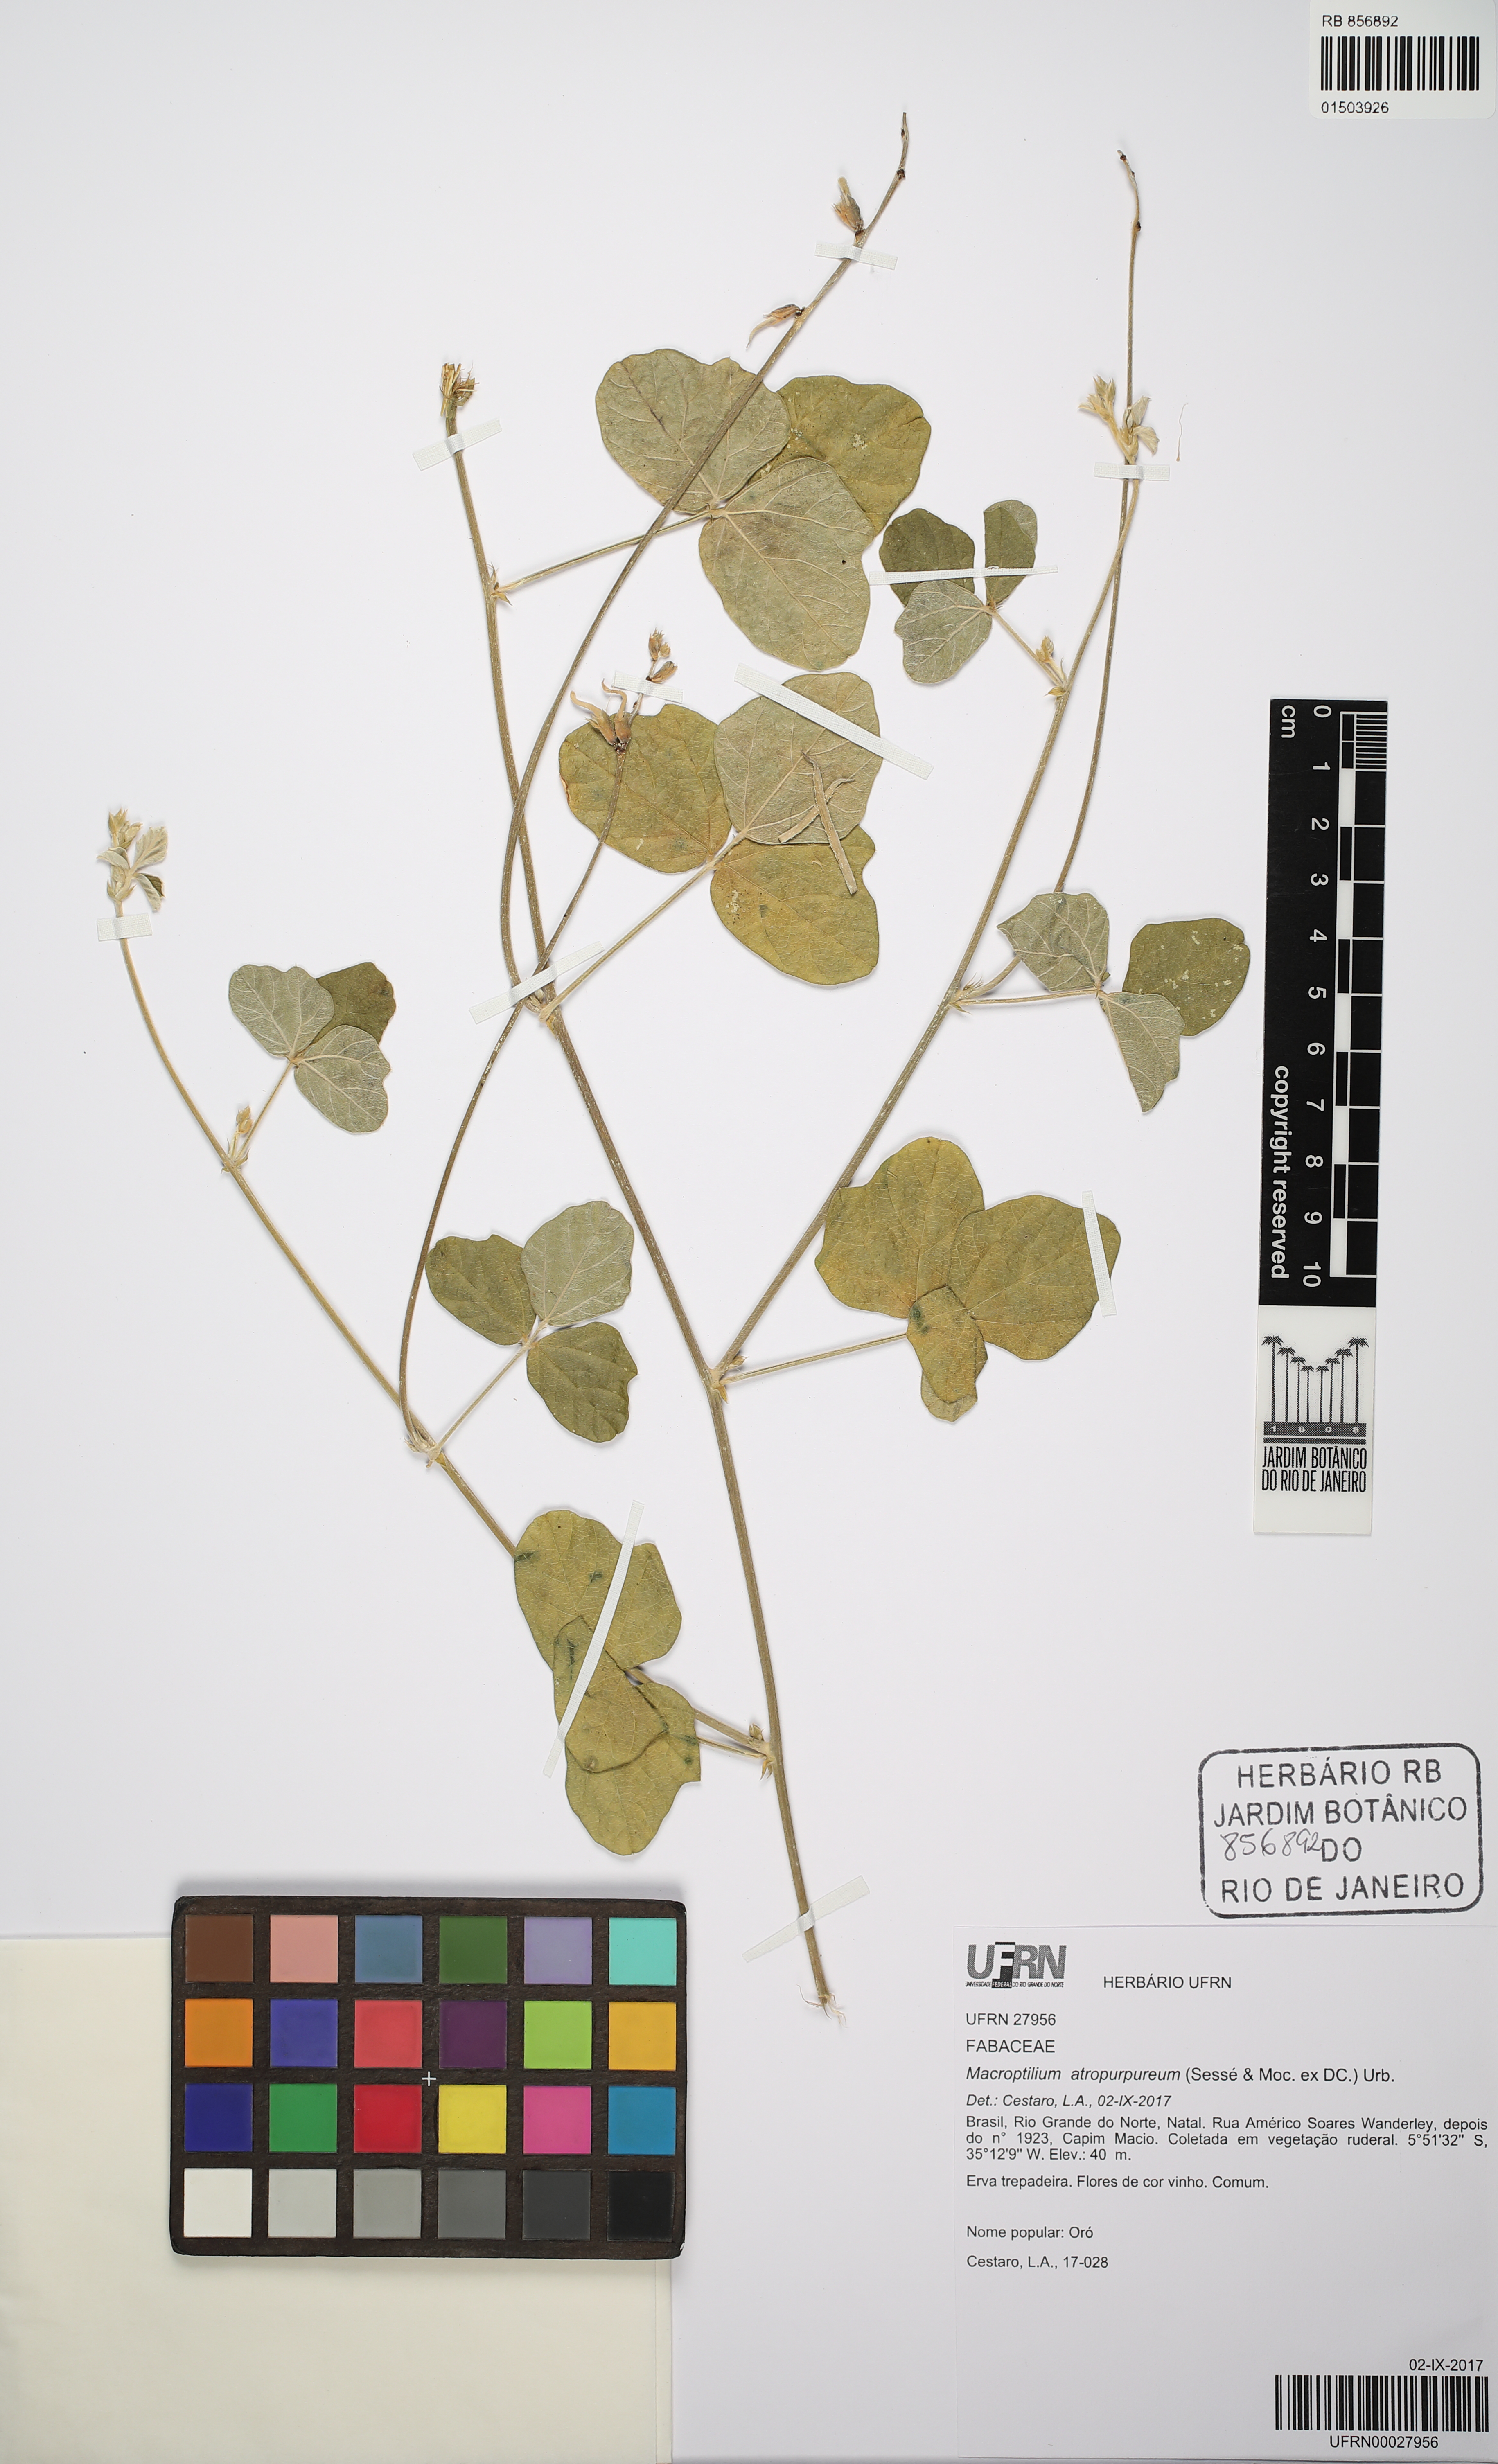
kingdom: Plantae
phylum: Tracheophyta
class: Magnoliopsida
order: Fabales
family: Fabaceae
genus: Macroptilium
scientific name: Macroptilium atropurpureum
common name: Purple bushbean
